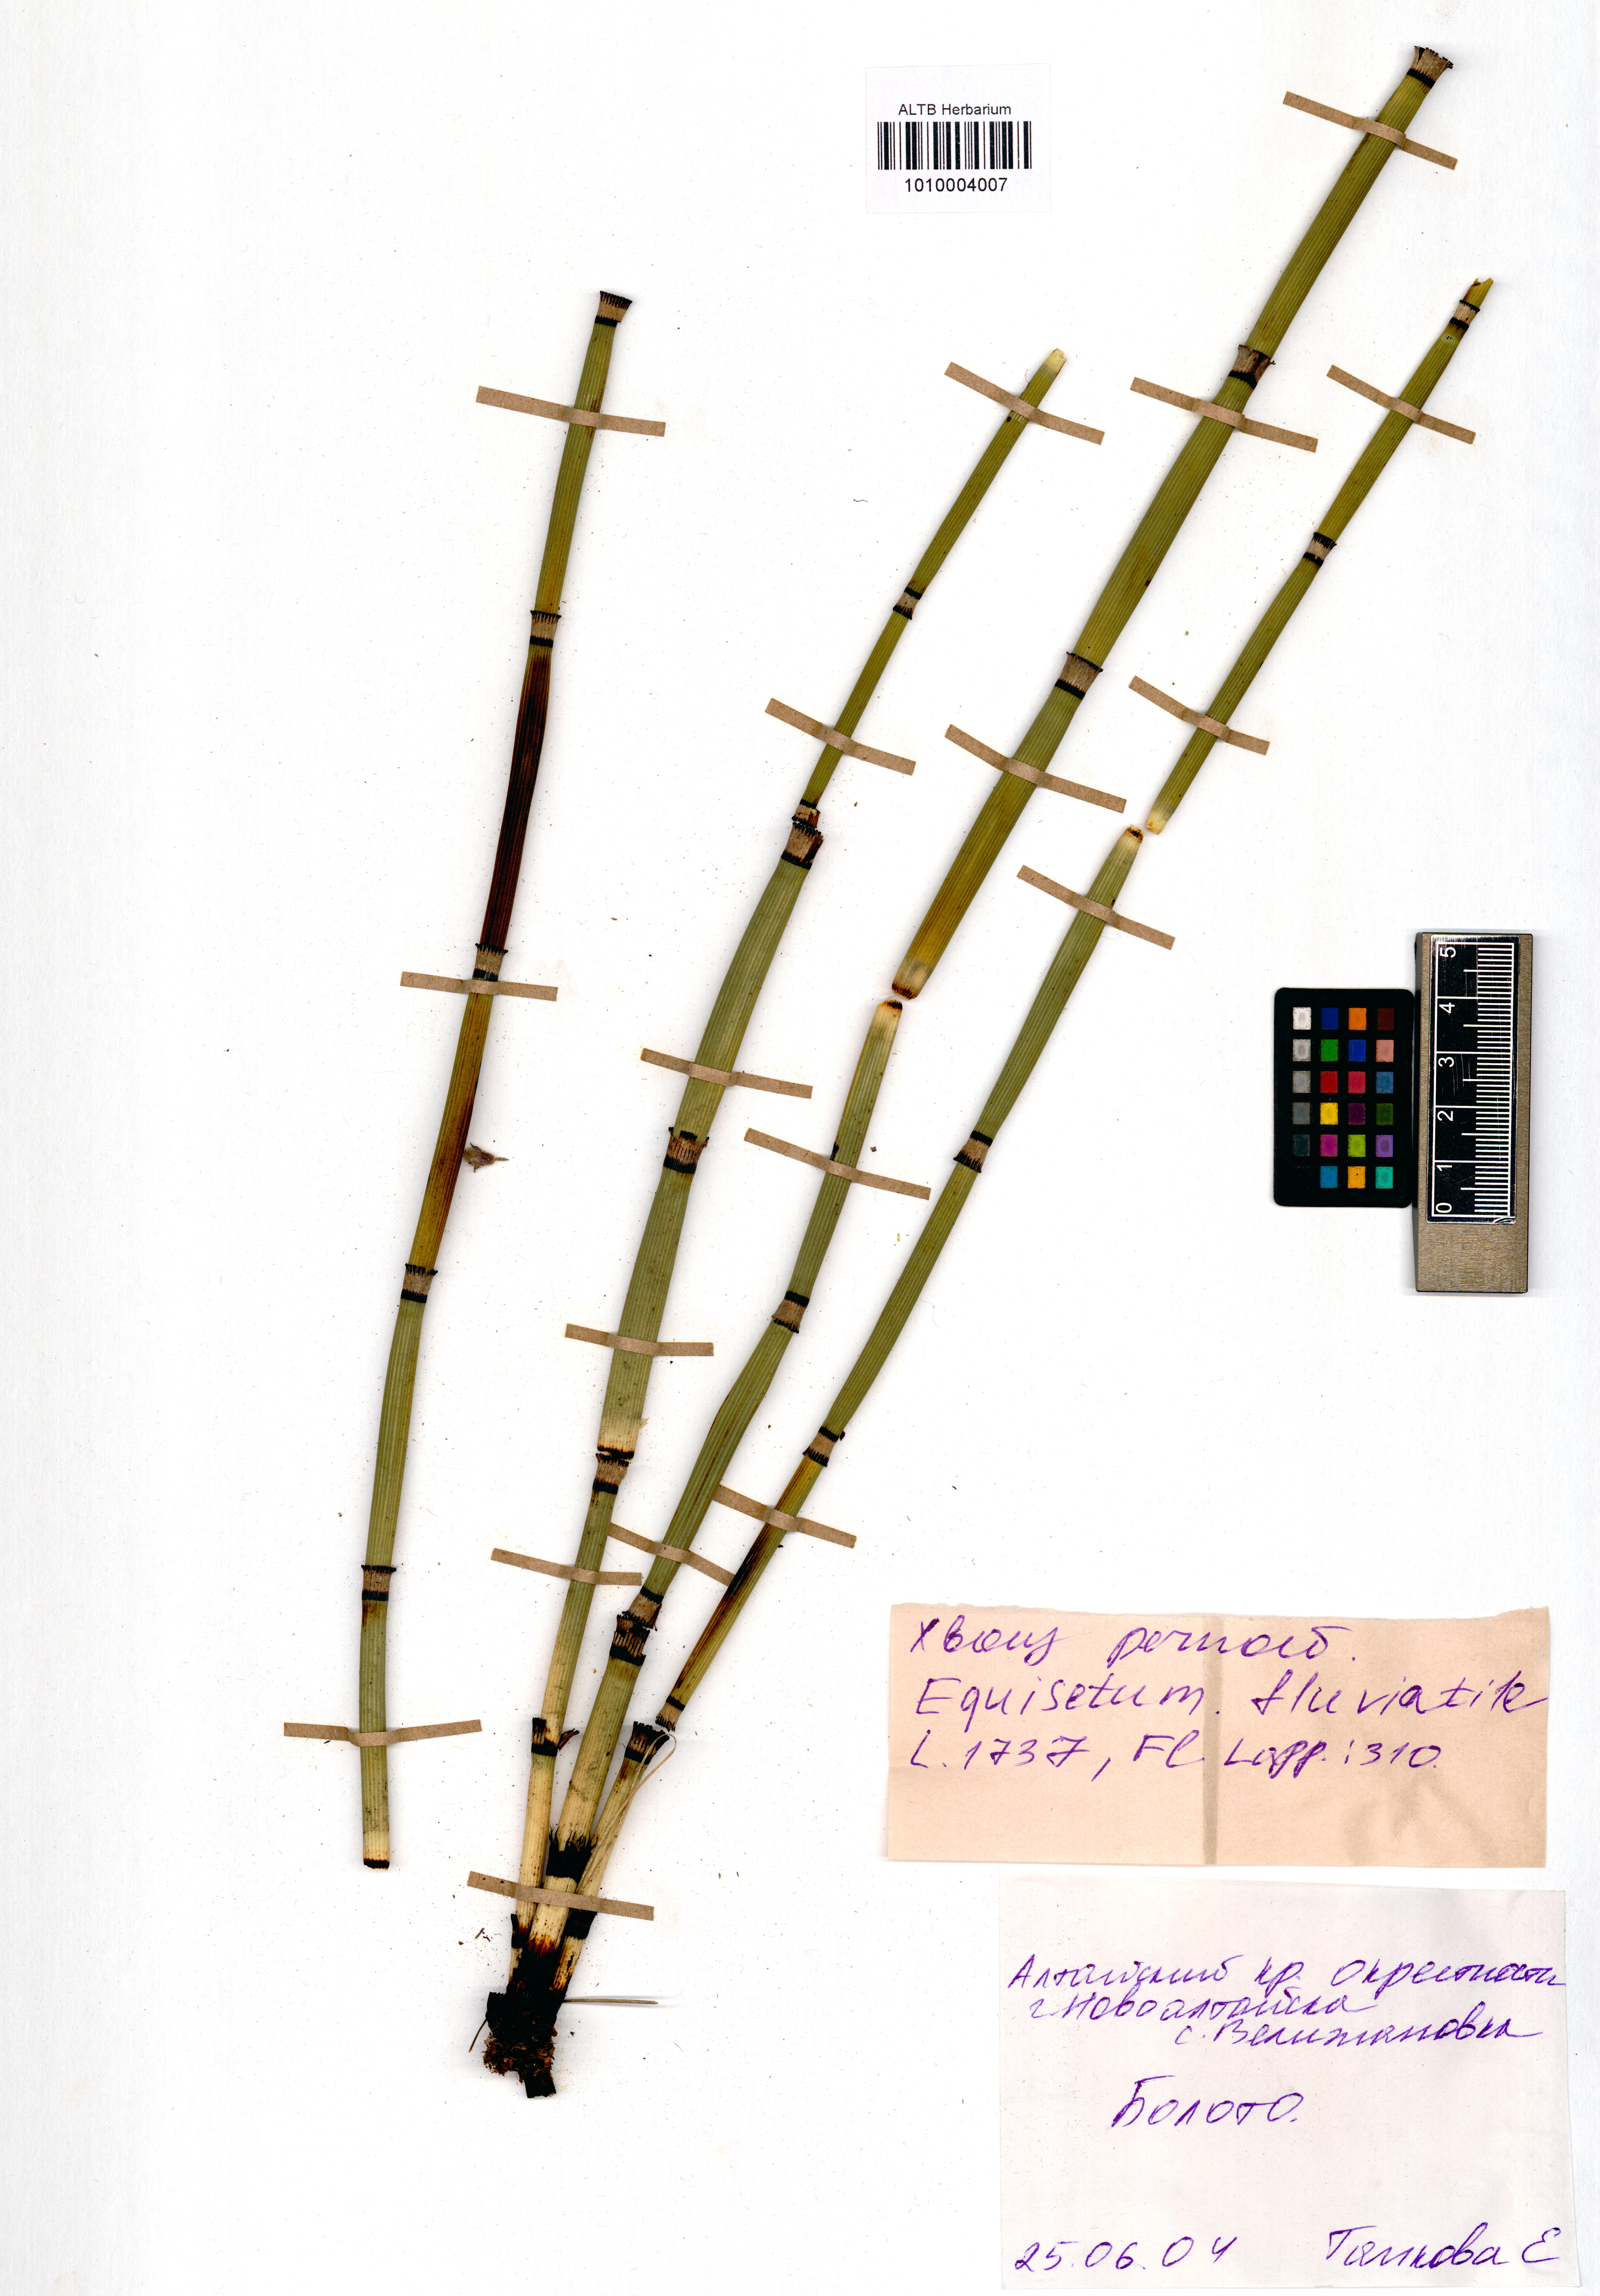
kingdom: Plantae
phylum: Tracheophyta
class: Polypodiopsida
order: Equisetales
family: Equisetaceae
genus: Equisetum
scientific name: Equisetum fluviatile
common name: Water horsetail
